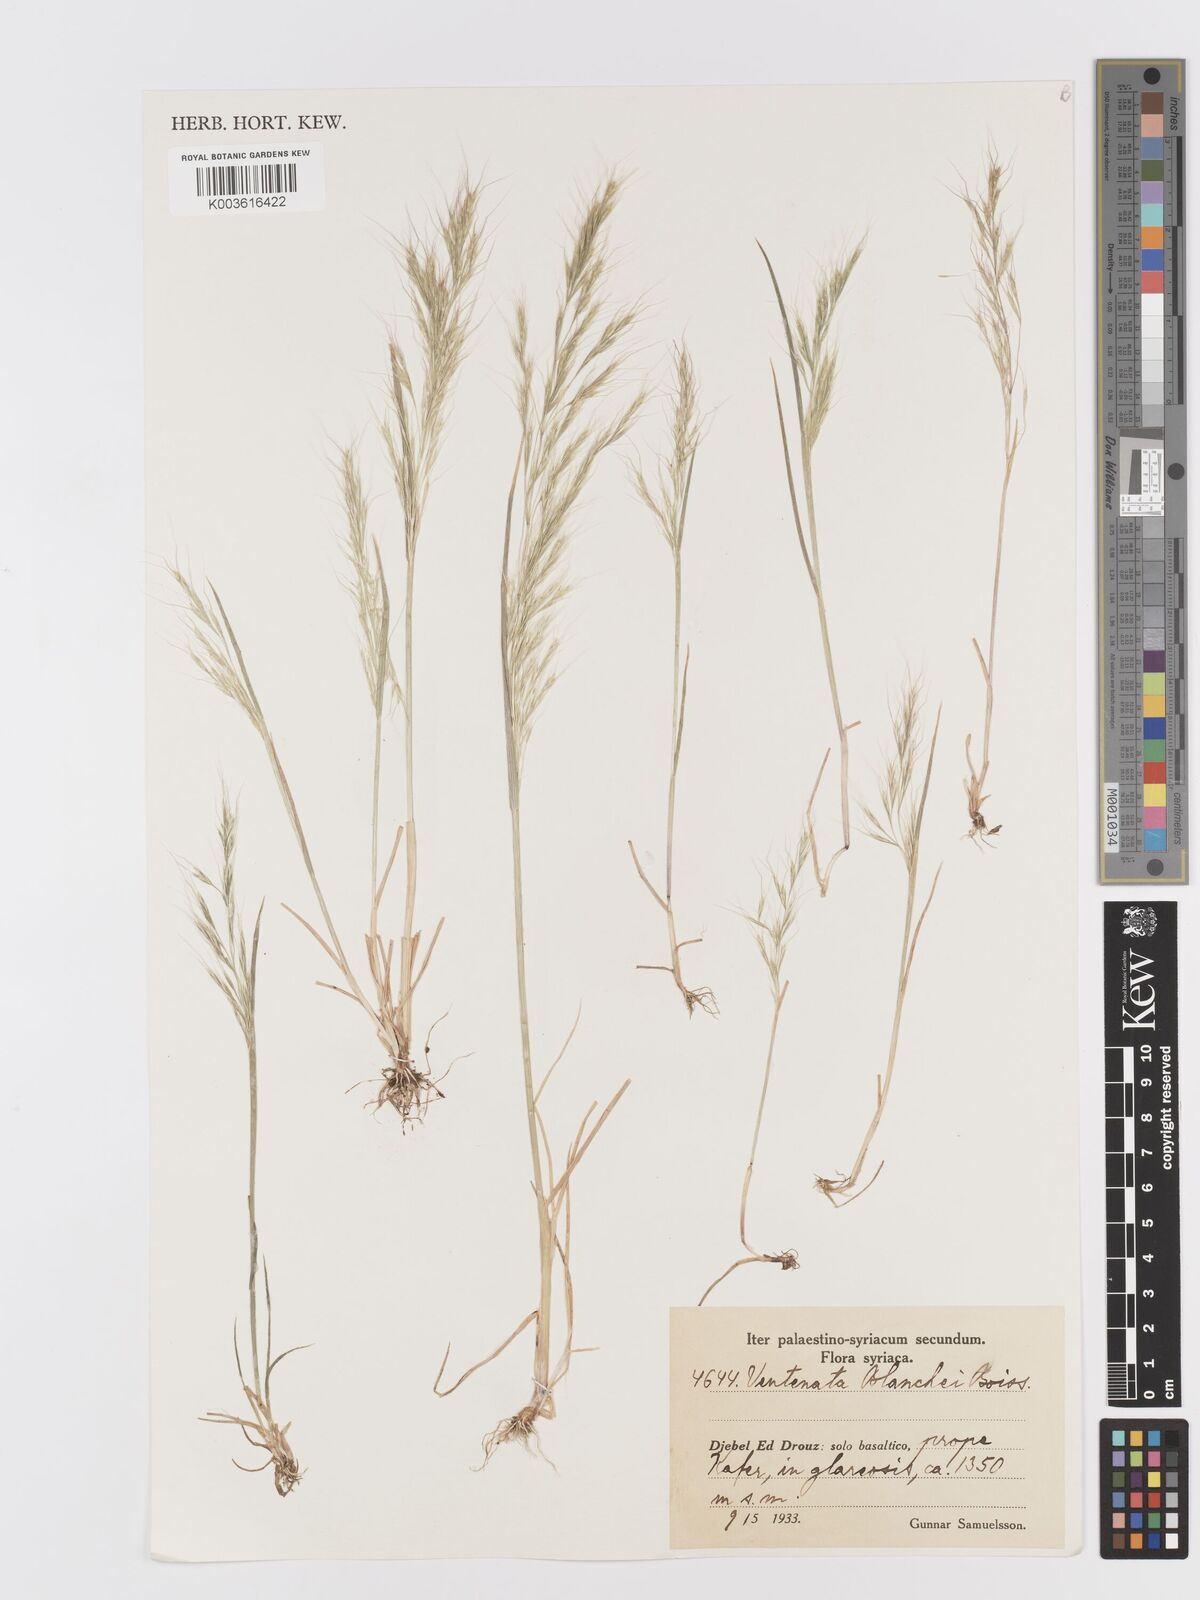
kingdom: Plantae
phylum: Tracheophyta
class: Liliopsida
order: Poales
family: Poaceae
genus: Ventenata
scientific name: Ventenata blanchei
